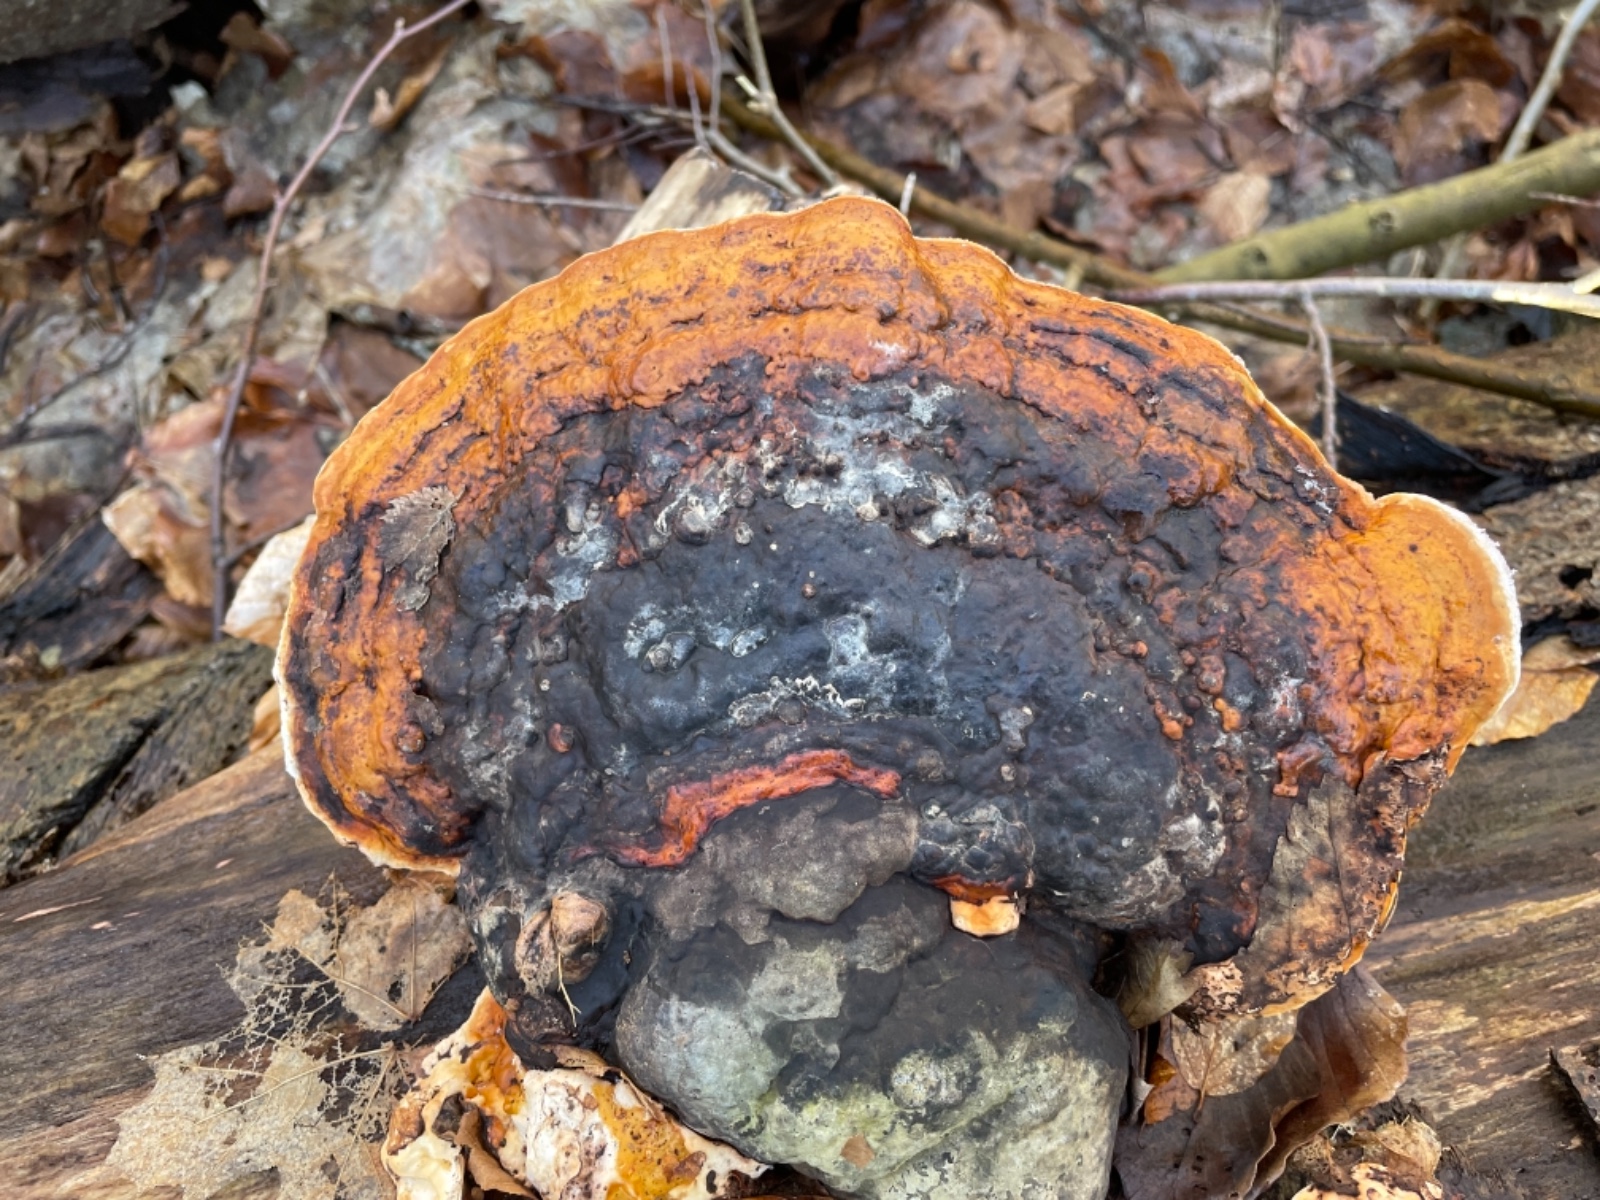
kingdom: Fungi
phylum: Basidiomycota
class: Agaricomycetes
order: Polyporales
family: Fomitopsidaceae
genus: Fomitopsis
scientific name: Fomitopsis pinicola
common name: randbæltet hovporesvamp
